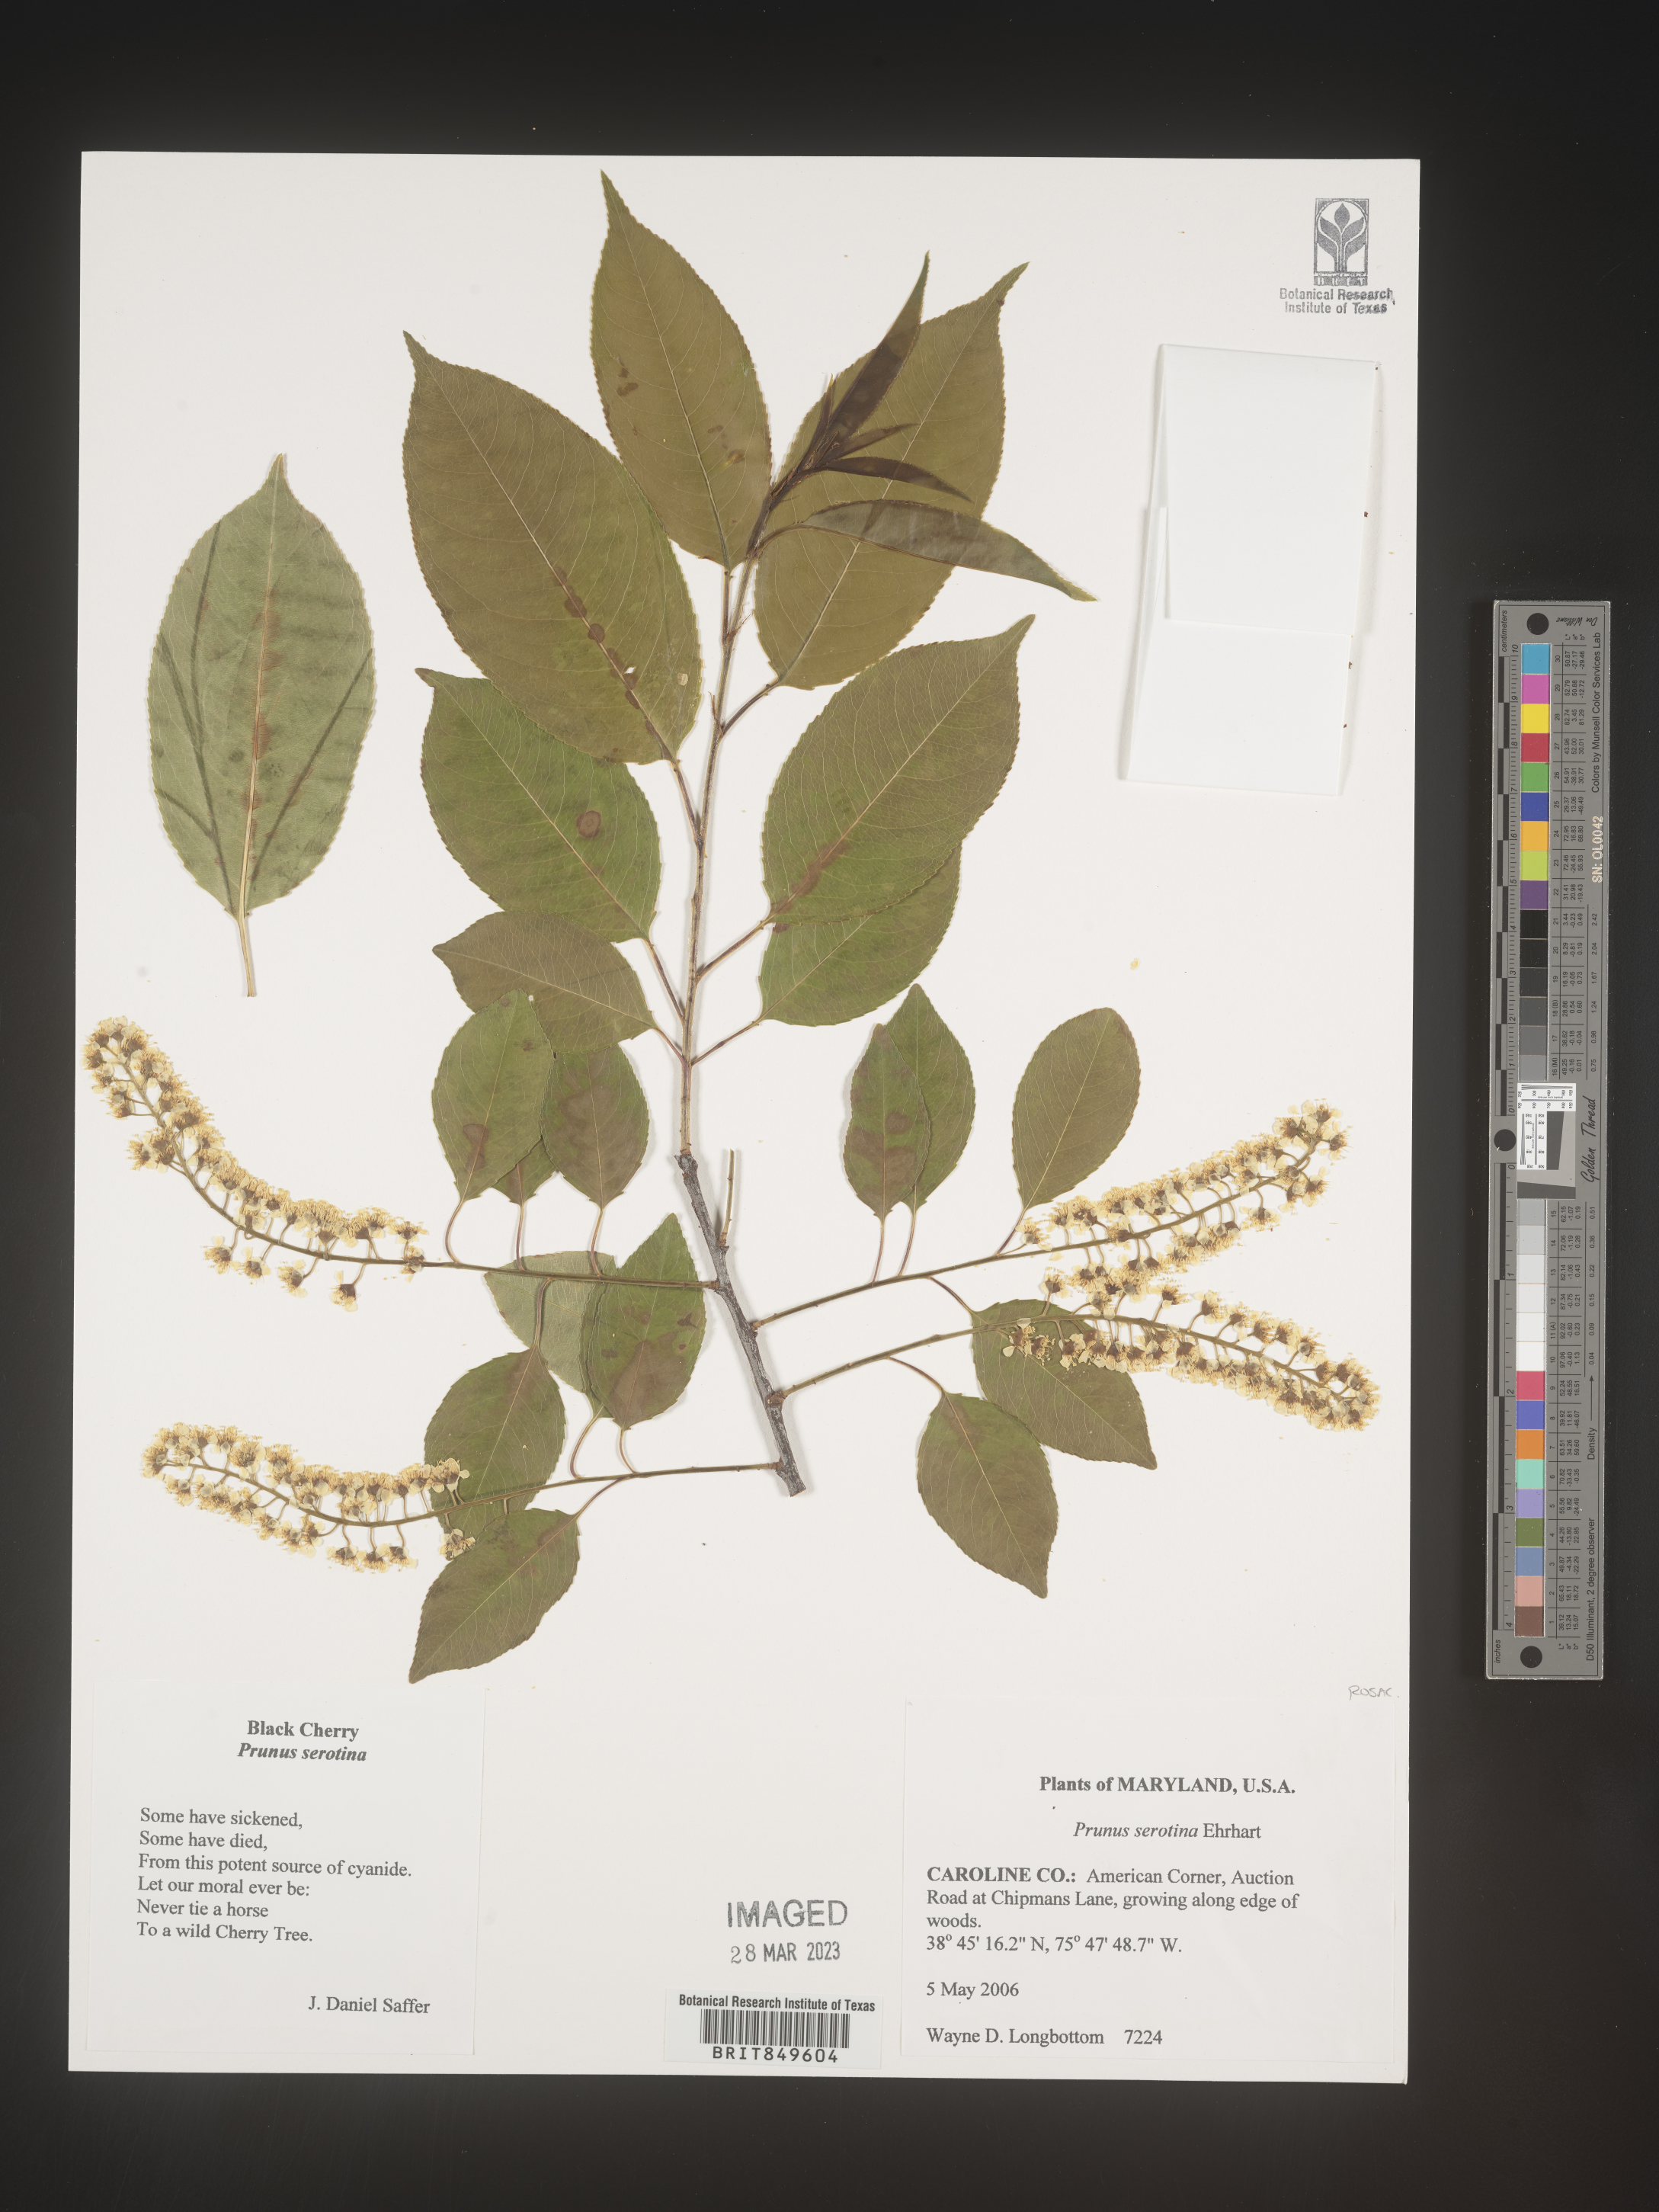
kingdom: Plantae
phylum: Tracheophyta
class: Magnoliopsida
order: Rosales
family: Rosaceae
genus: Prunus
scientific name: Prunus serotina
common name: Black cherry
